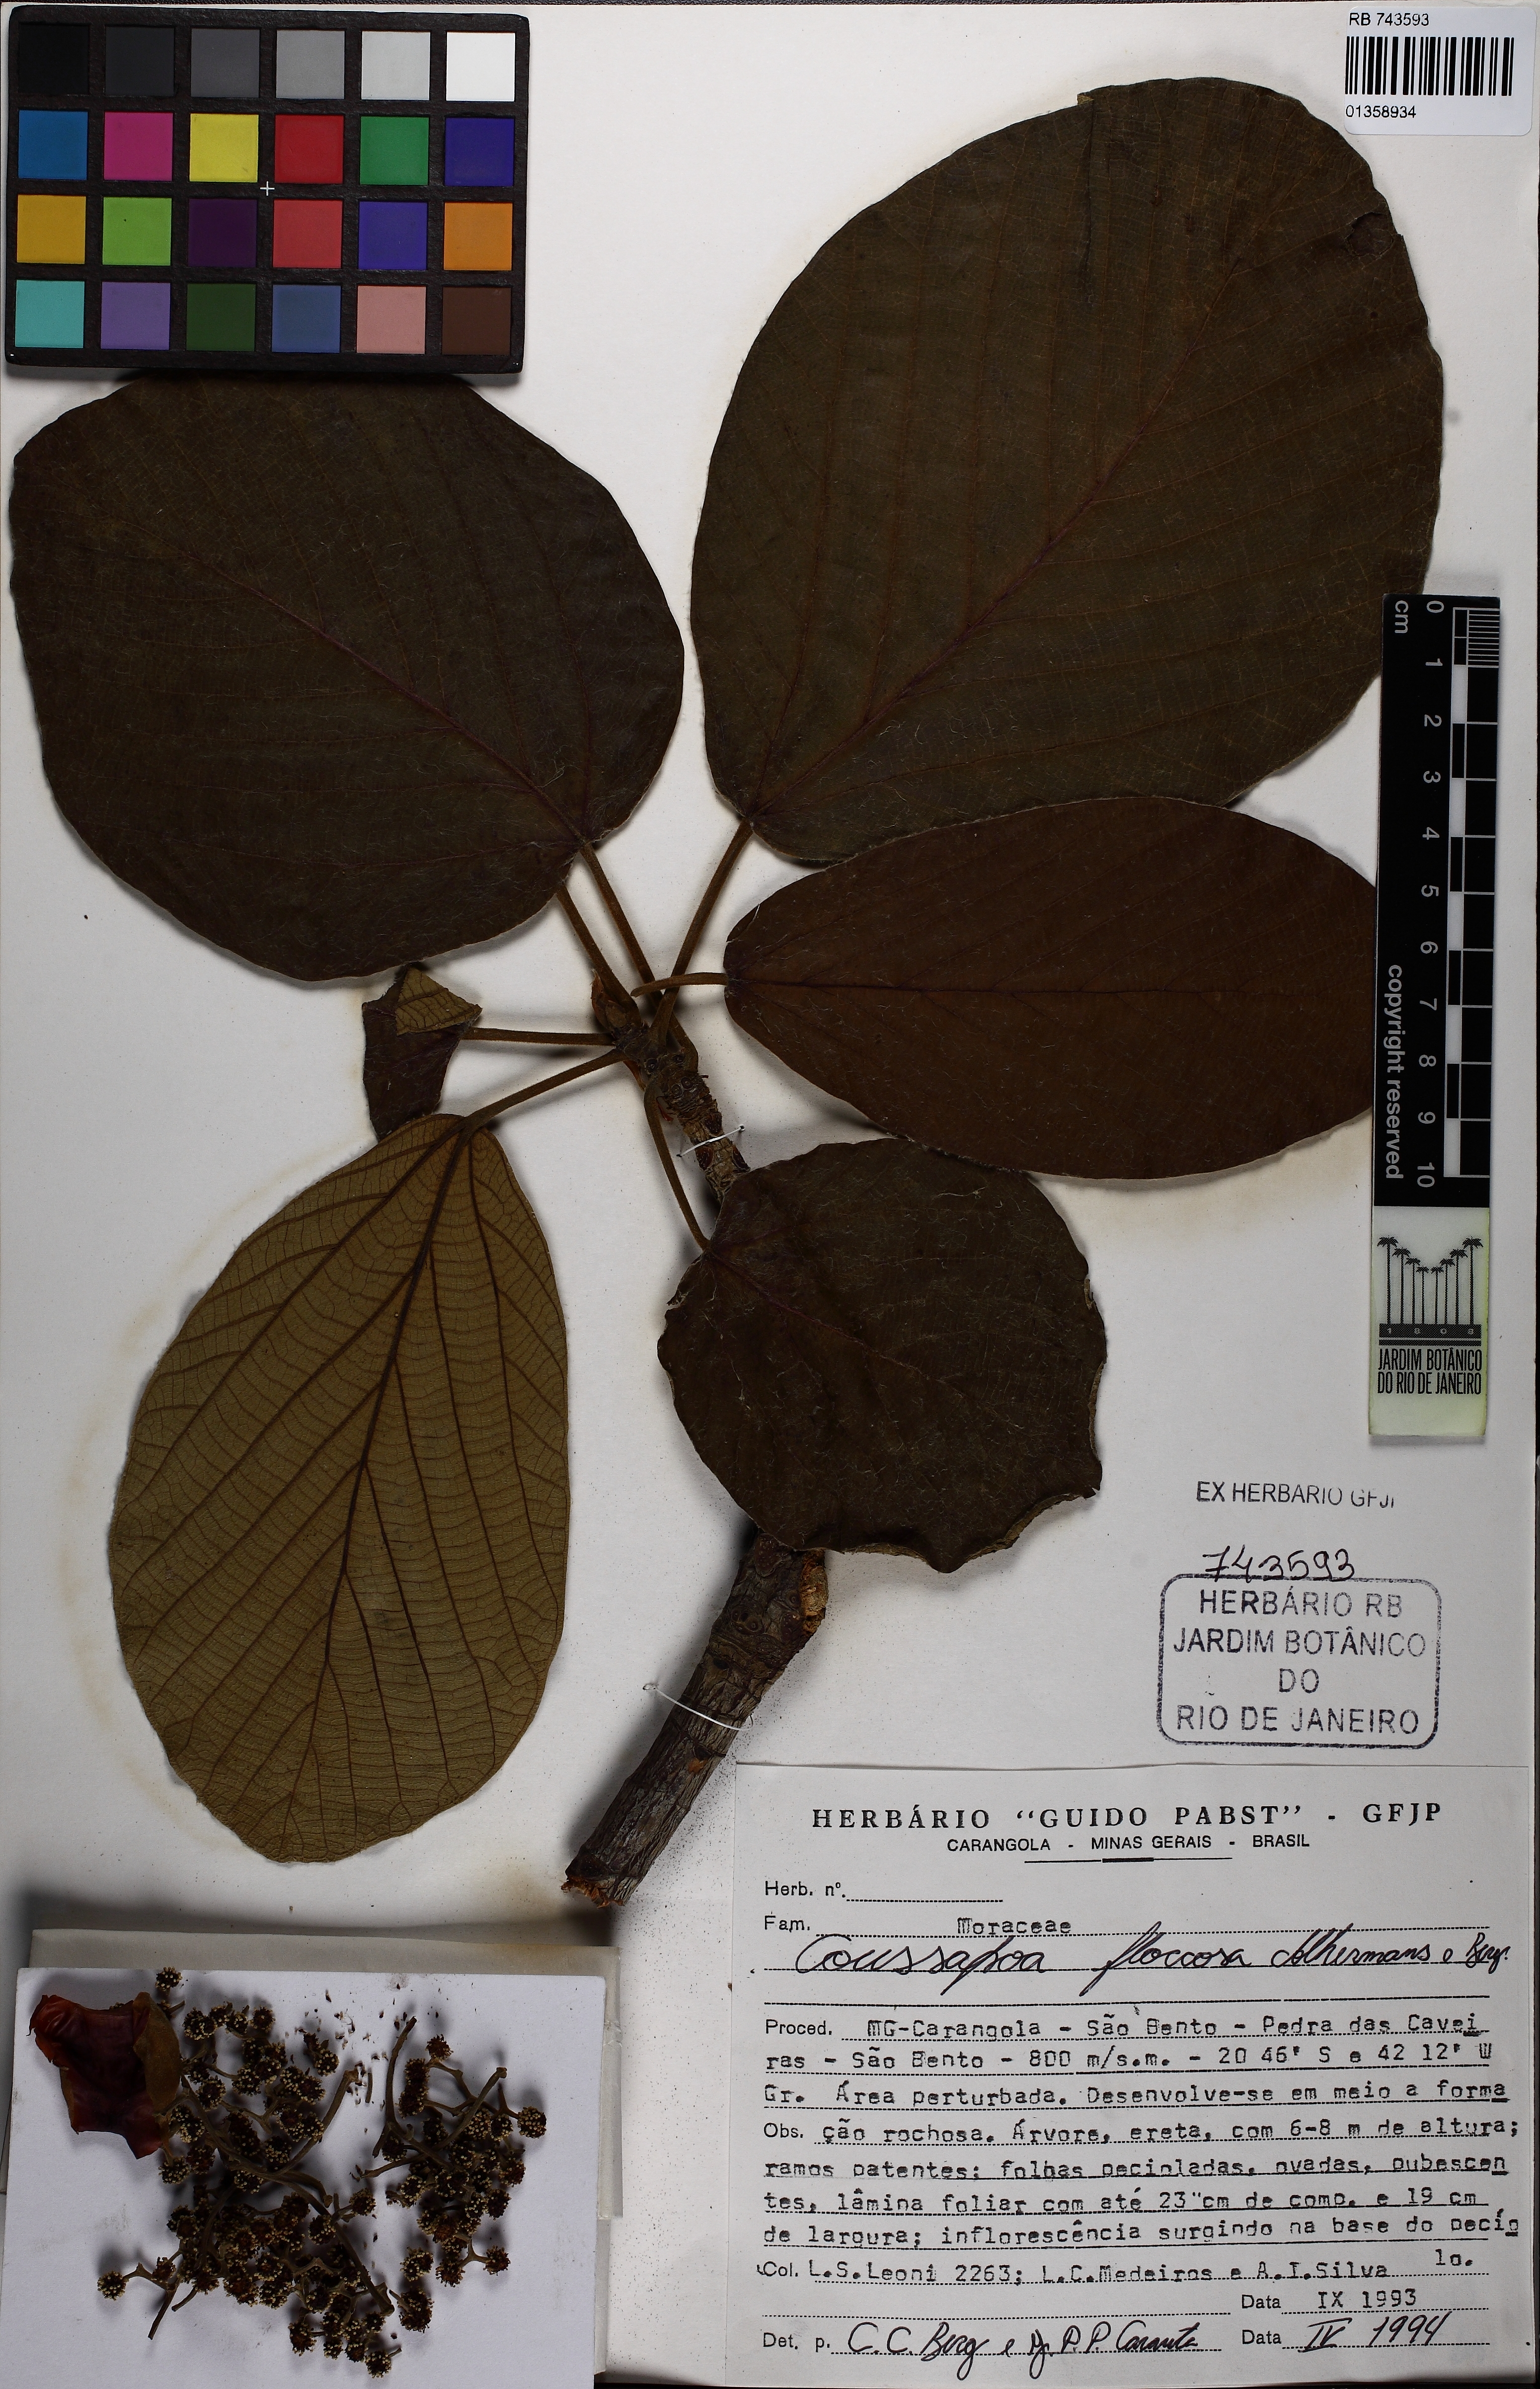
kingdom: Plantae
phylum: Tracheophyta
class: Magnoliopsida
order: Rosales
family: Urticaceae
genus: Coussapoa
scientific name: Coussapoa floccosa
